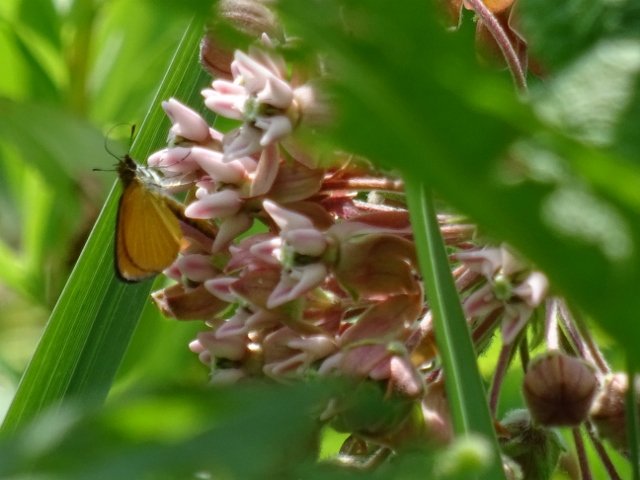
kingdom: Animalia
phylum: Arthropoda
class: Insecta
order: Lepidoptera
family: Hesperiidae
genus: Ancyloxypha
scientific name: Ancyloxypha numitor
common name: Least Skipper
